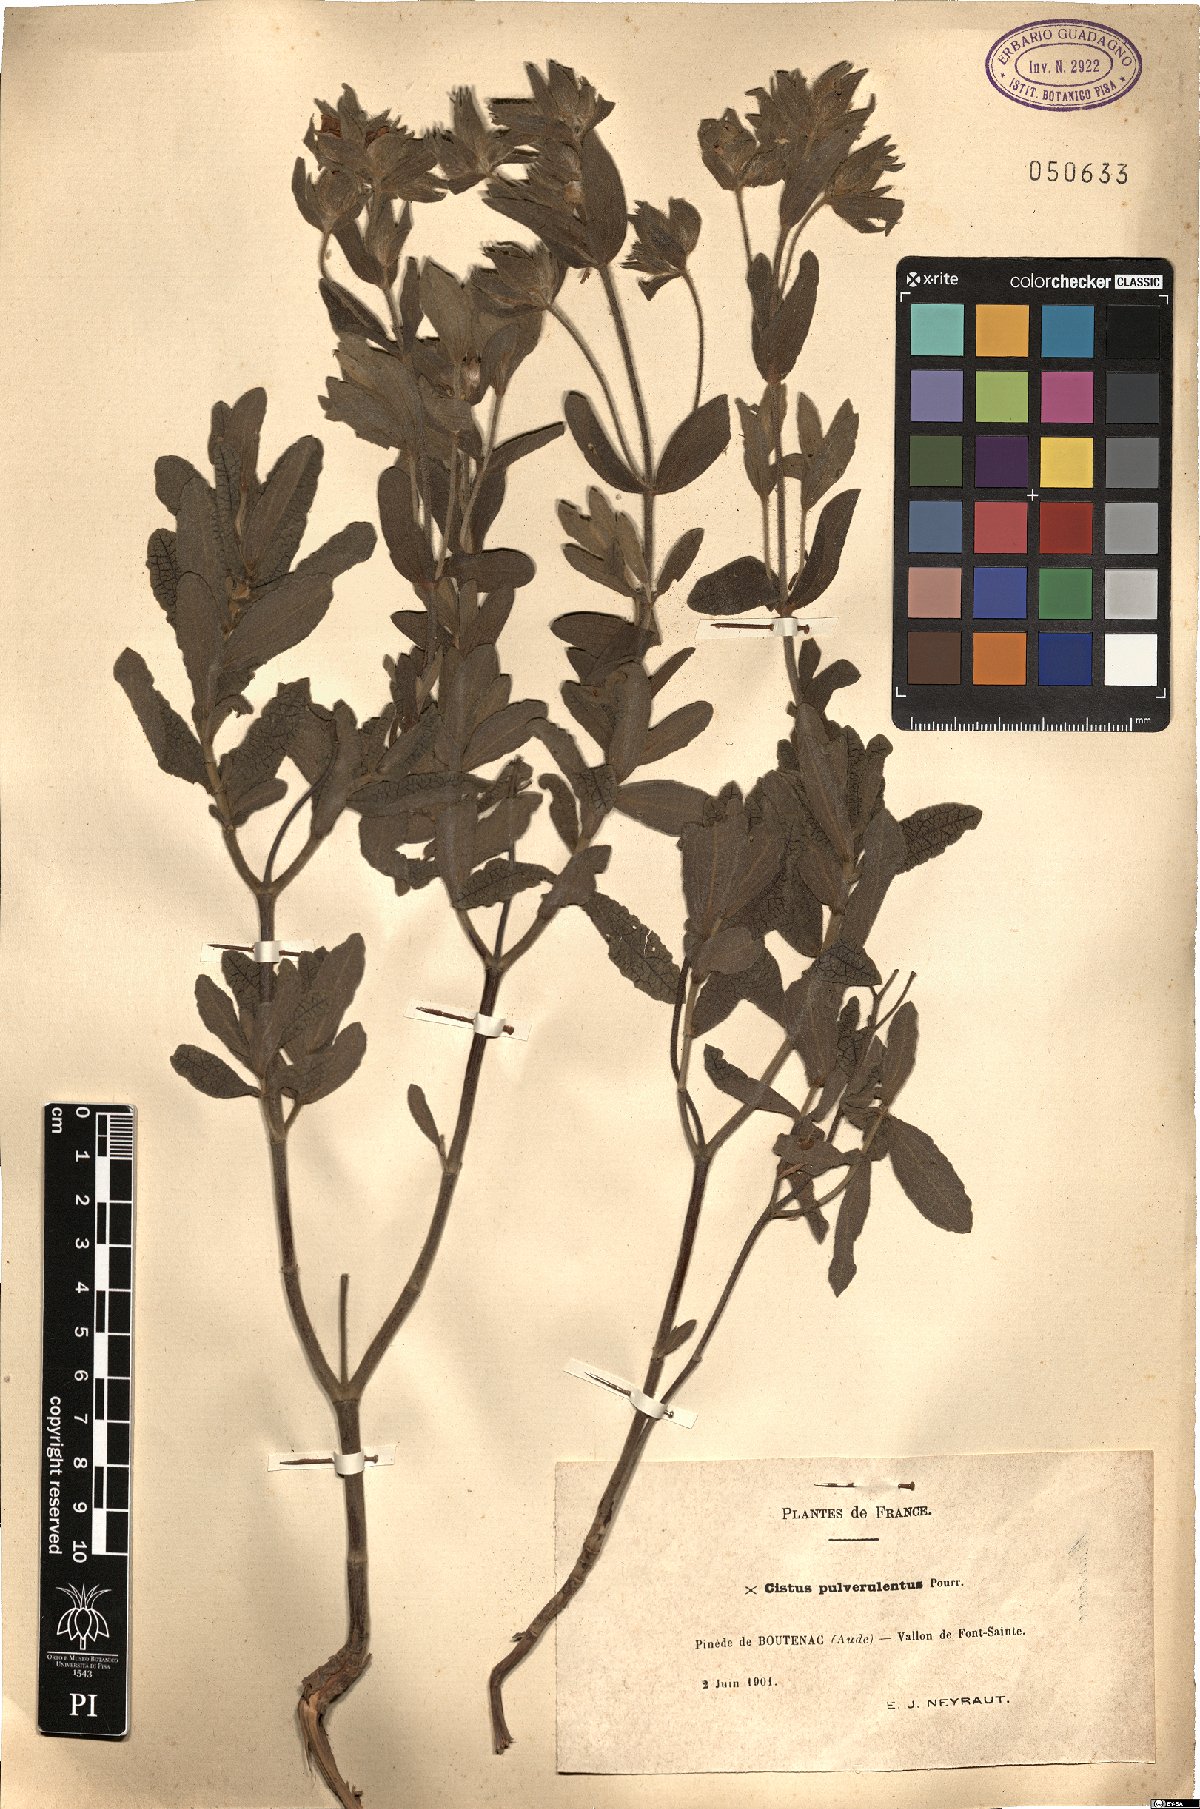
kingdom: Plantae
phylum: Tracheophyta
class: Magnoliopsida
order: Malvales
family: Cistaceae
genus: Cistus
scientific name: Cistus incanus
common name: Hairy rockrose
